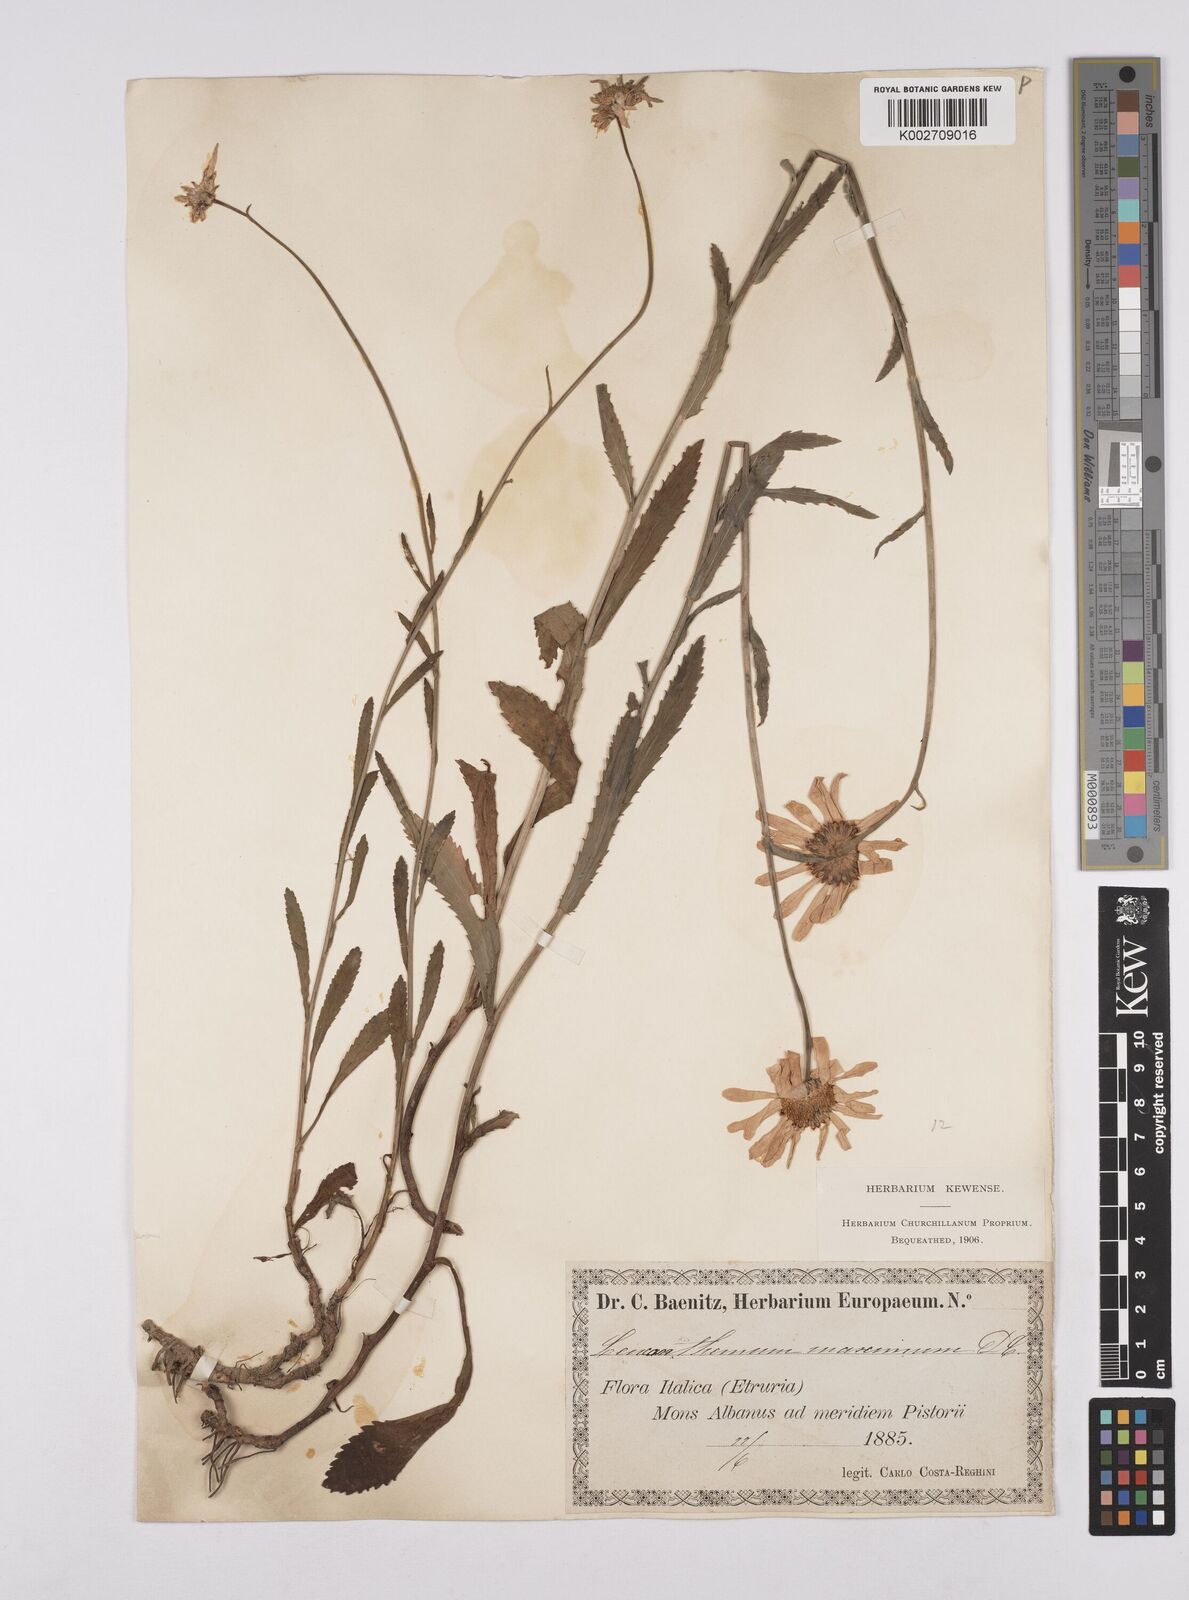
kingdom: Plantae
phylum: Tracheophyta
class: Magnoliopsida
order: Asterales
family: Asteraceae
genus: Leucanthemum
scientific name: Leucanthemum heterophyllum
